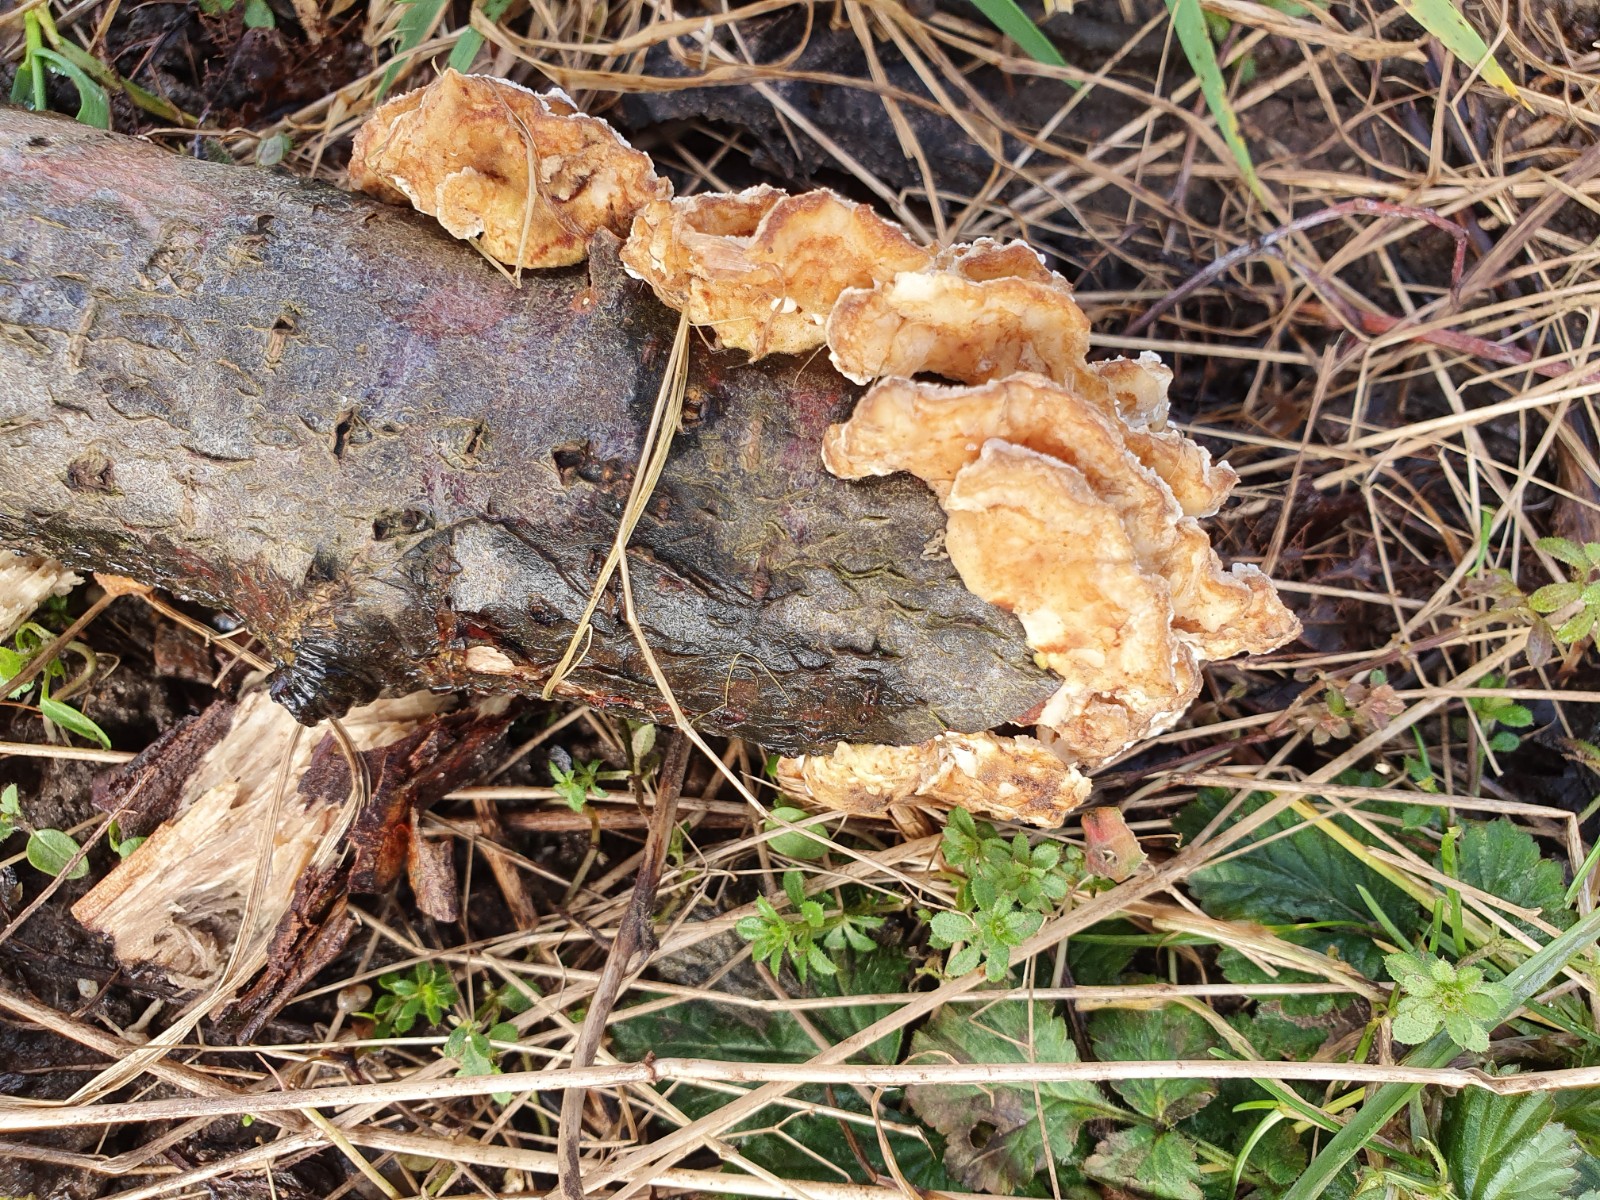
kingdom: Fungi
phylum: Basidiomycota
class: Agaricomycetes
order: Polyporales
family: Polyporaceae
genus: Trametes
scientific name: Trametes ochracea
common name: bæltet læderporesvamp
